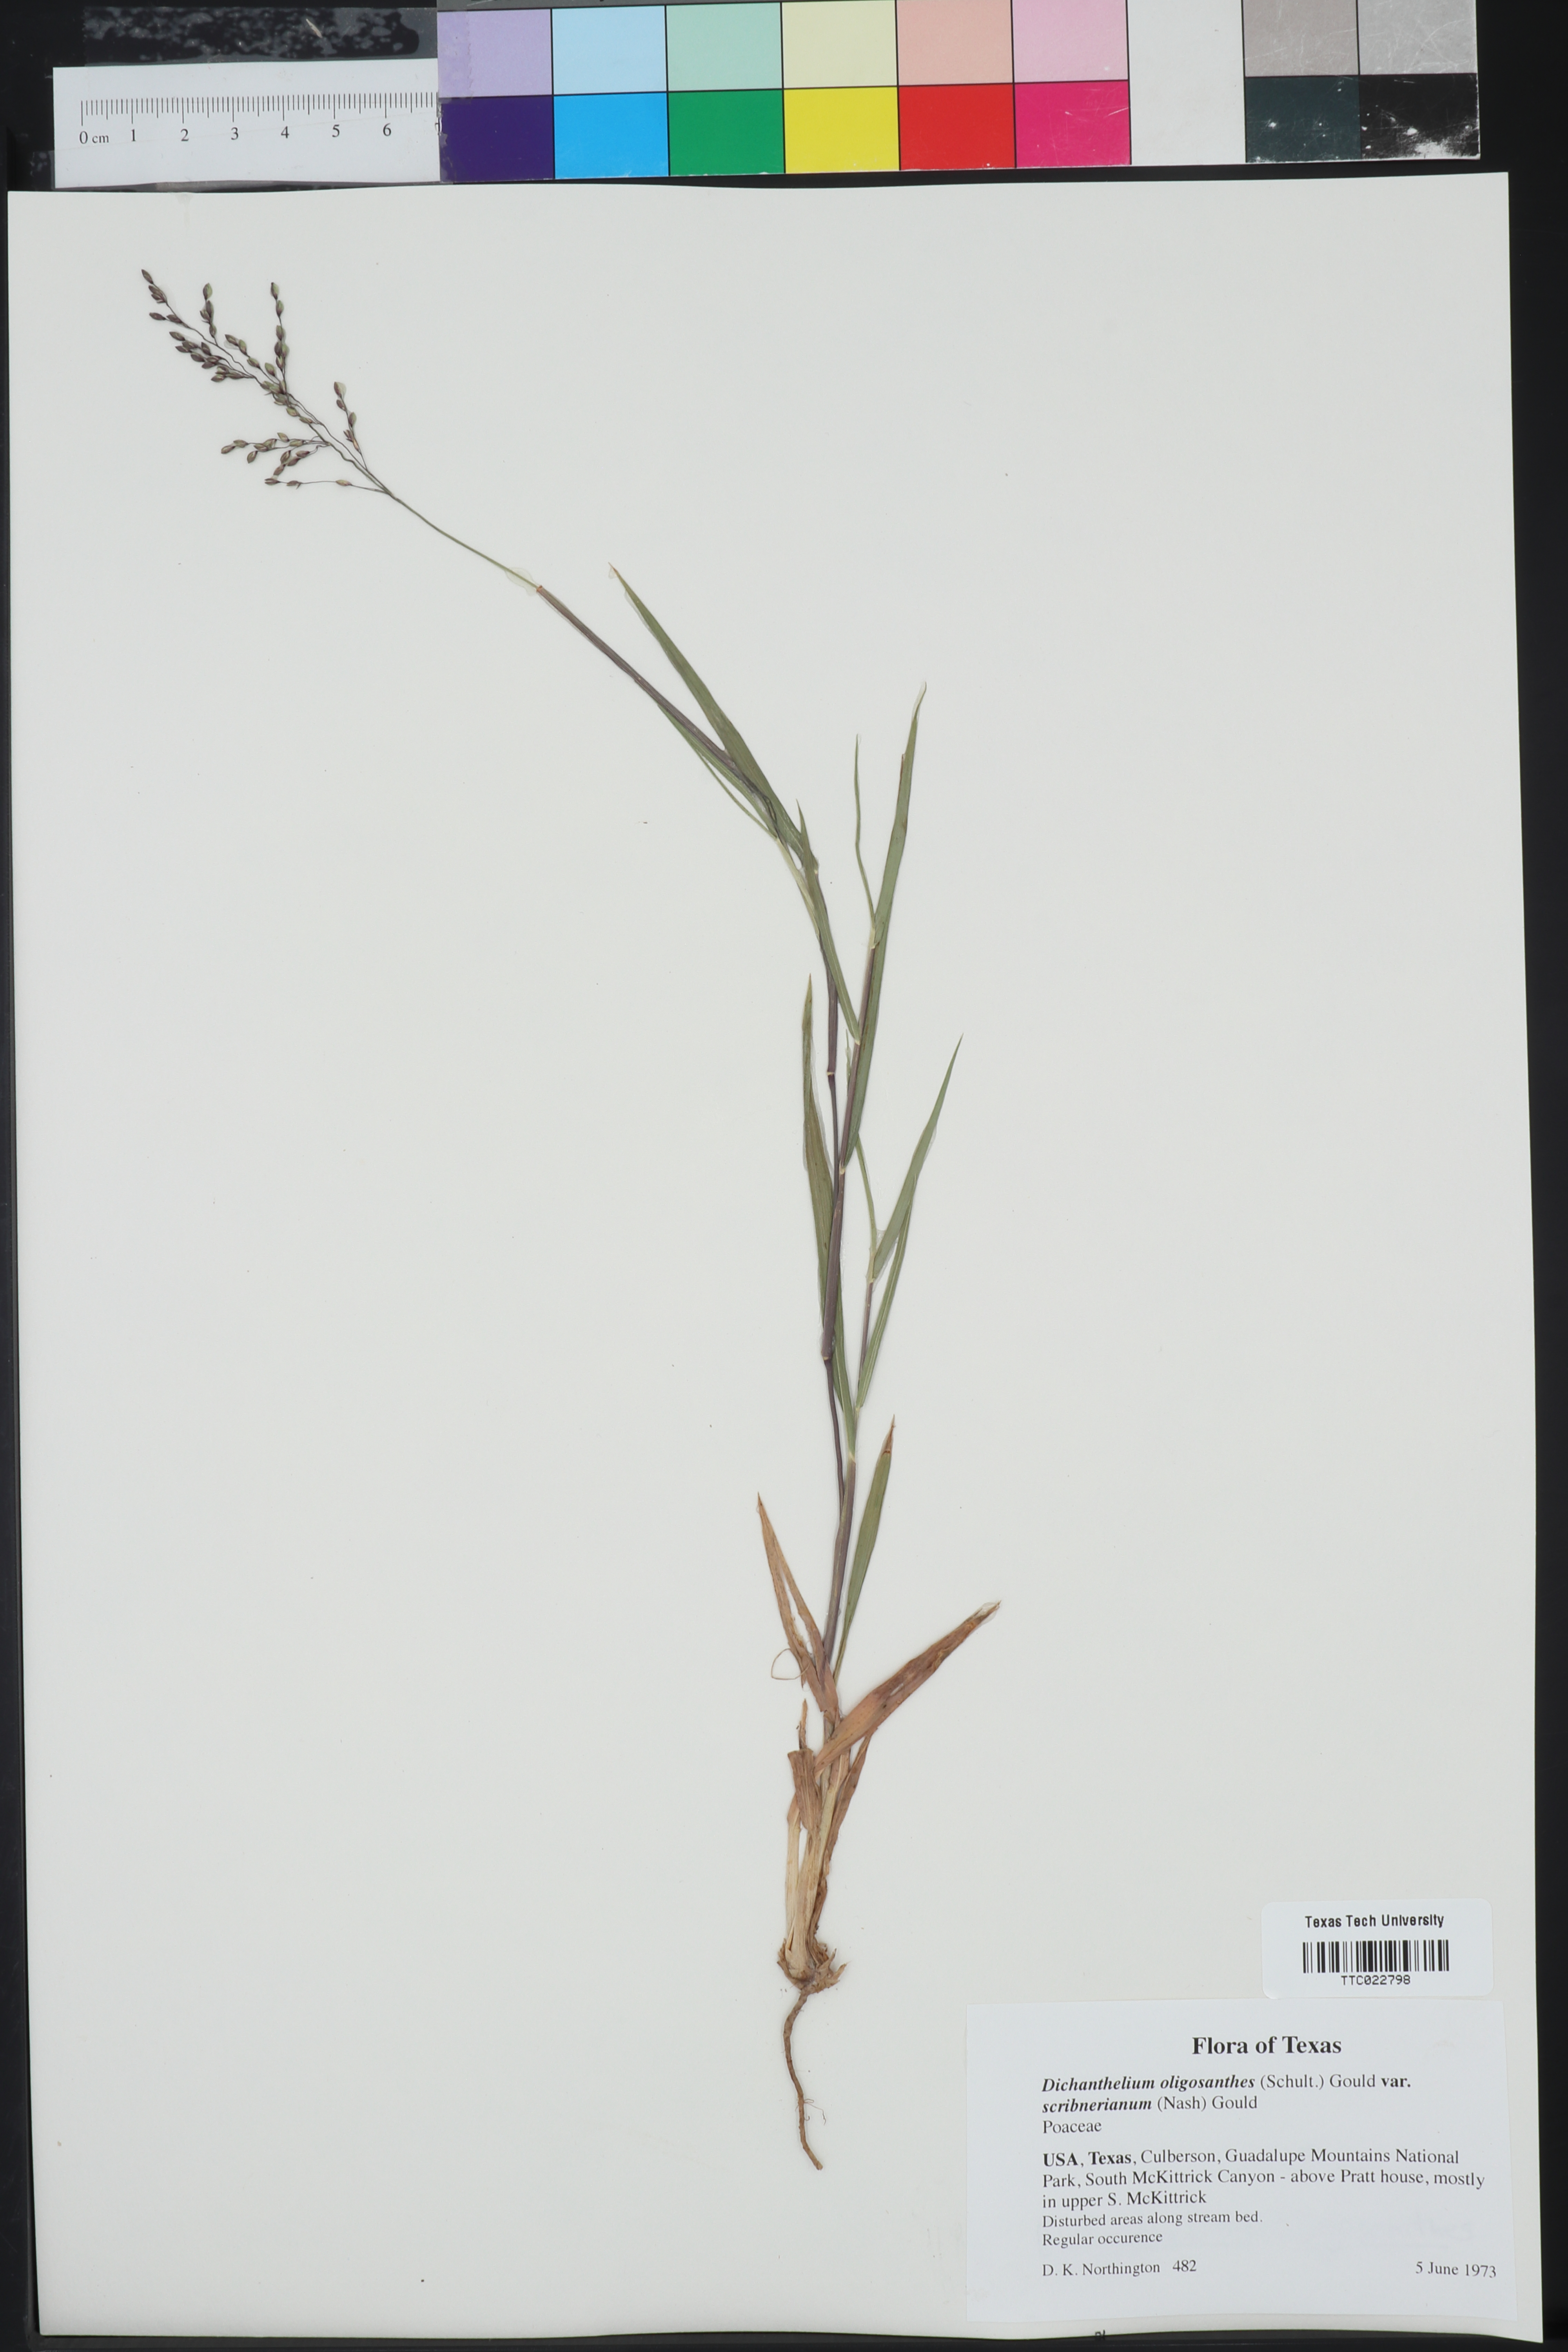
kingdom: Plantae
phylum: Tracheophyta
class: Liliopsida
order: Poales
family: Poaceae
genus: Dichanthelium
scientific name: Dichanthelium scribnerianum
